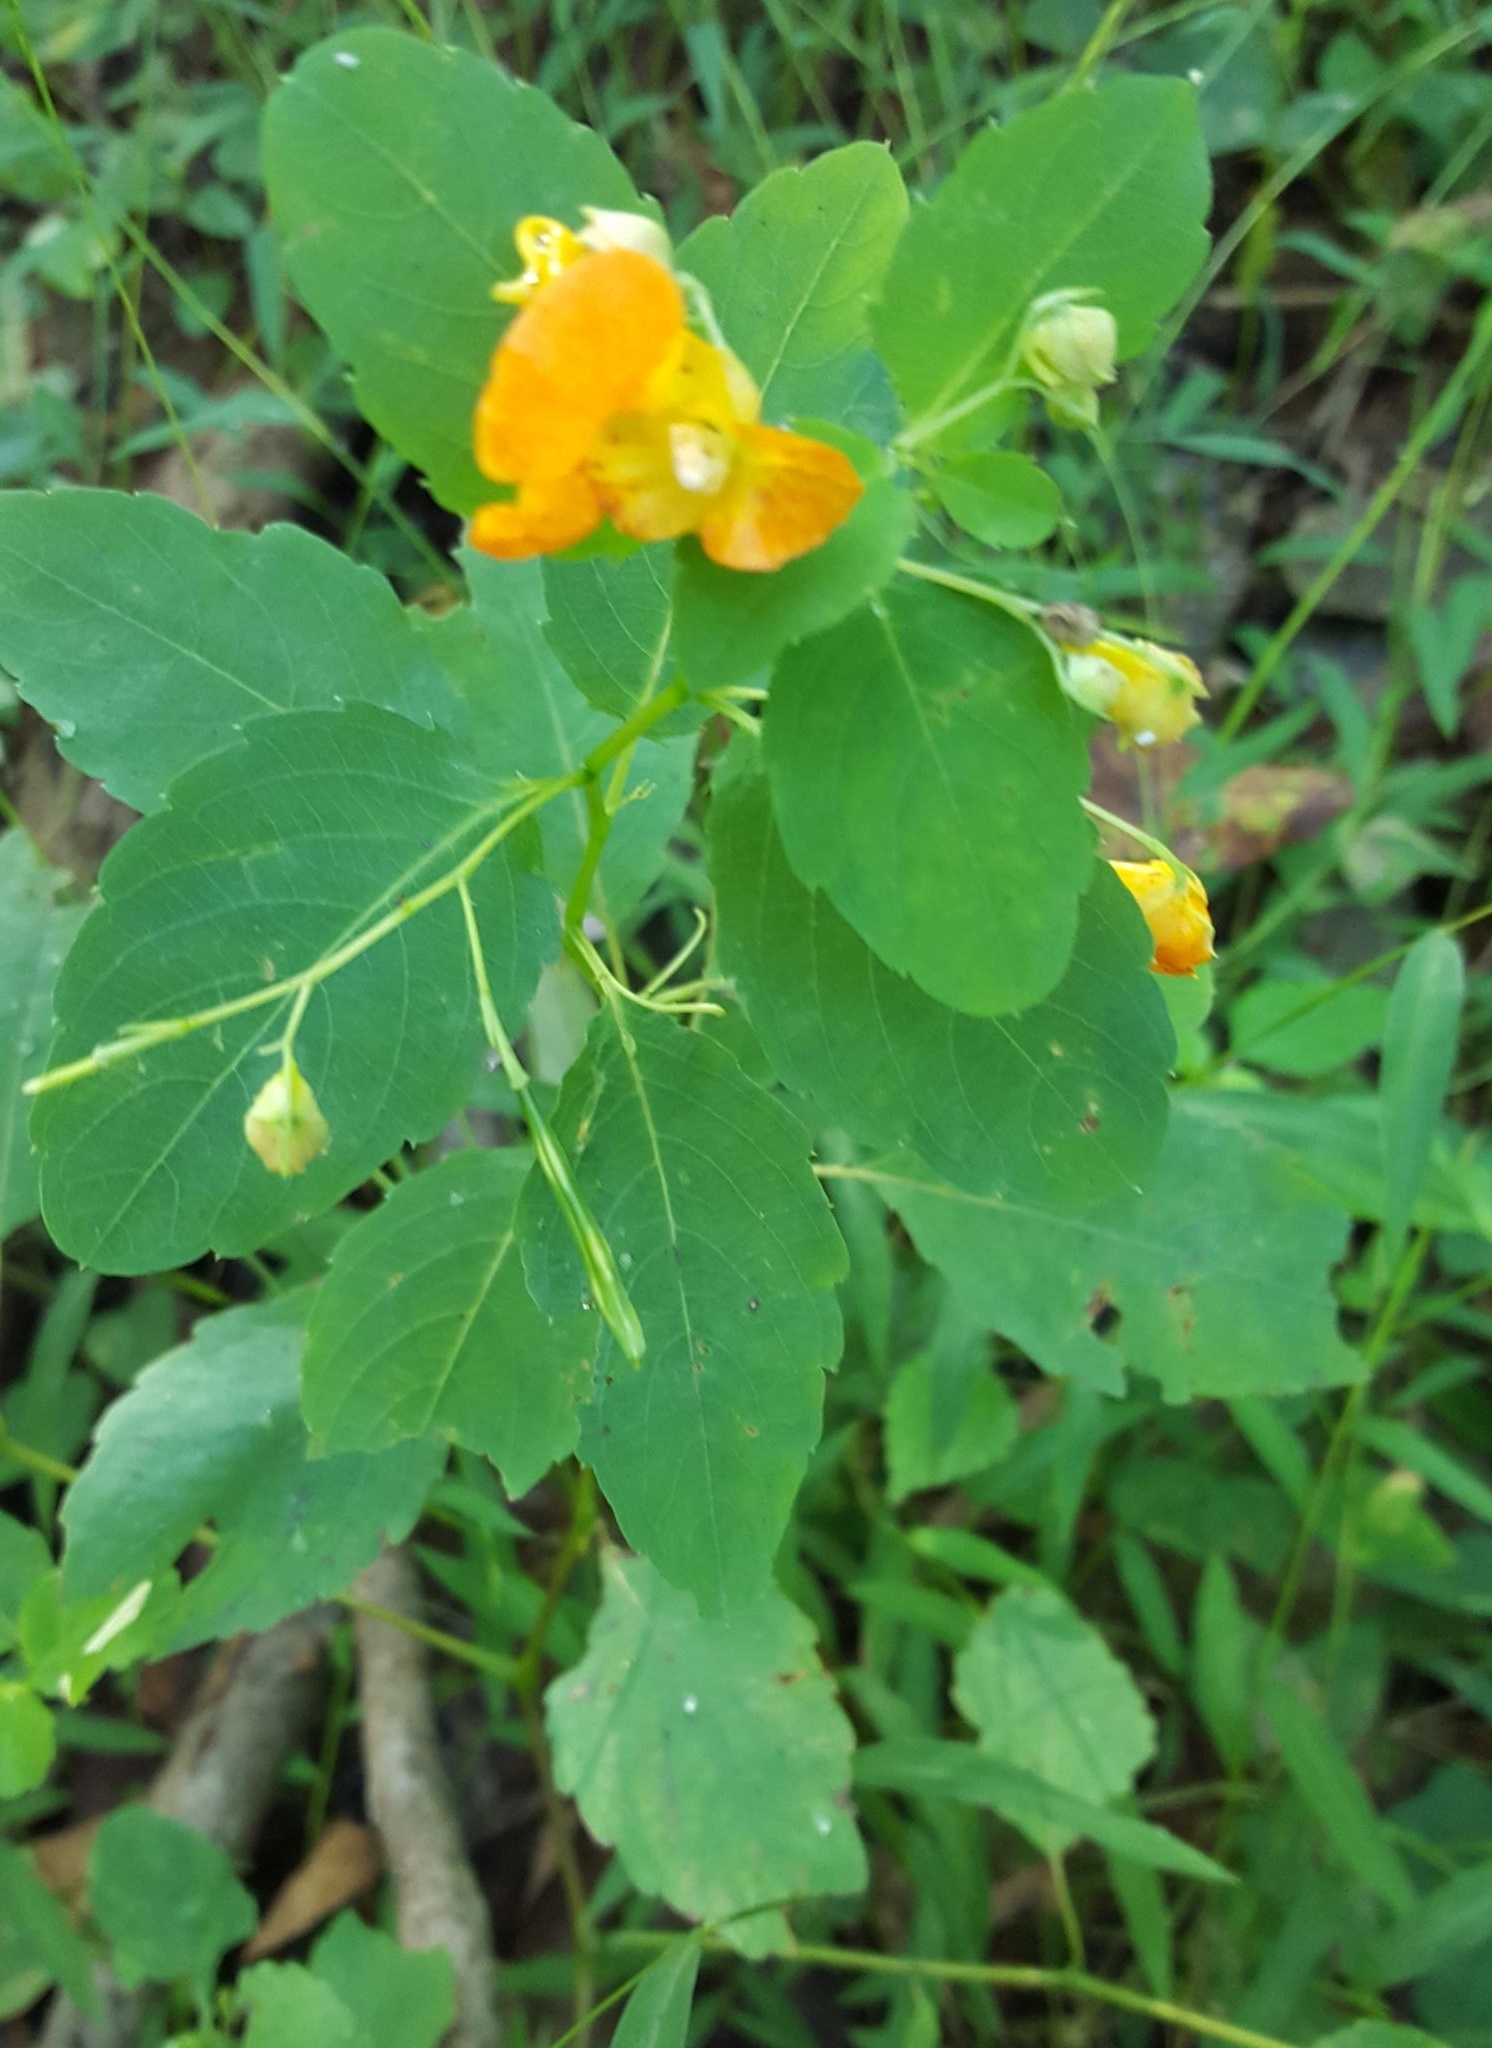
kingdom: Plantae
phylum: Tracheophyta
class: Magnoliopsida
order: Ericales
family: Balsaminaceae
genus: Impatiens
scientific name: Impatiens capensis
